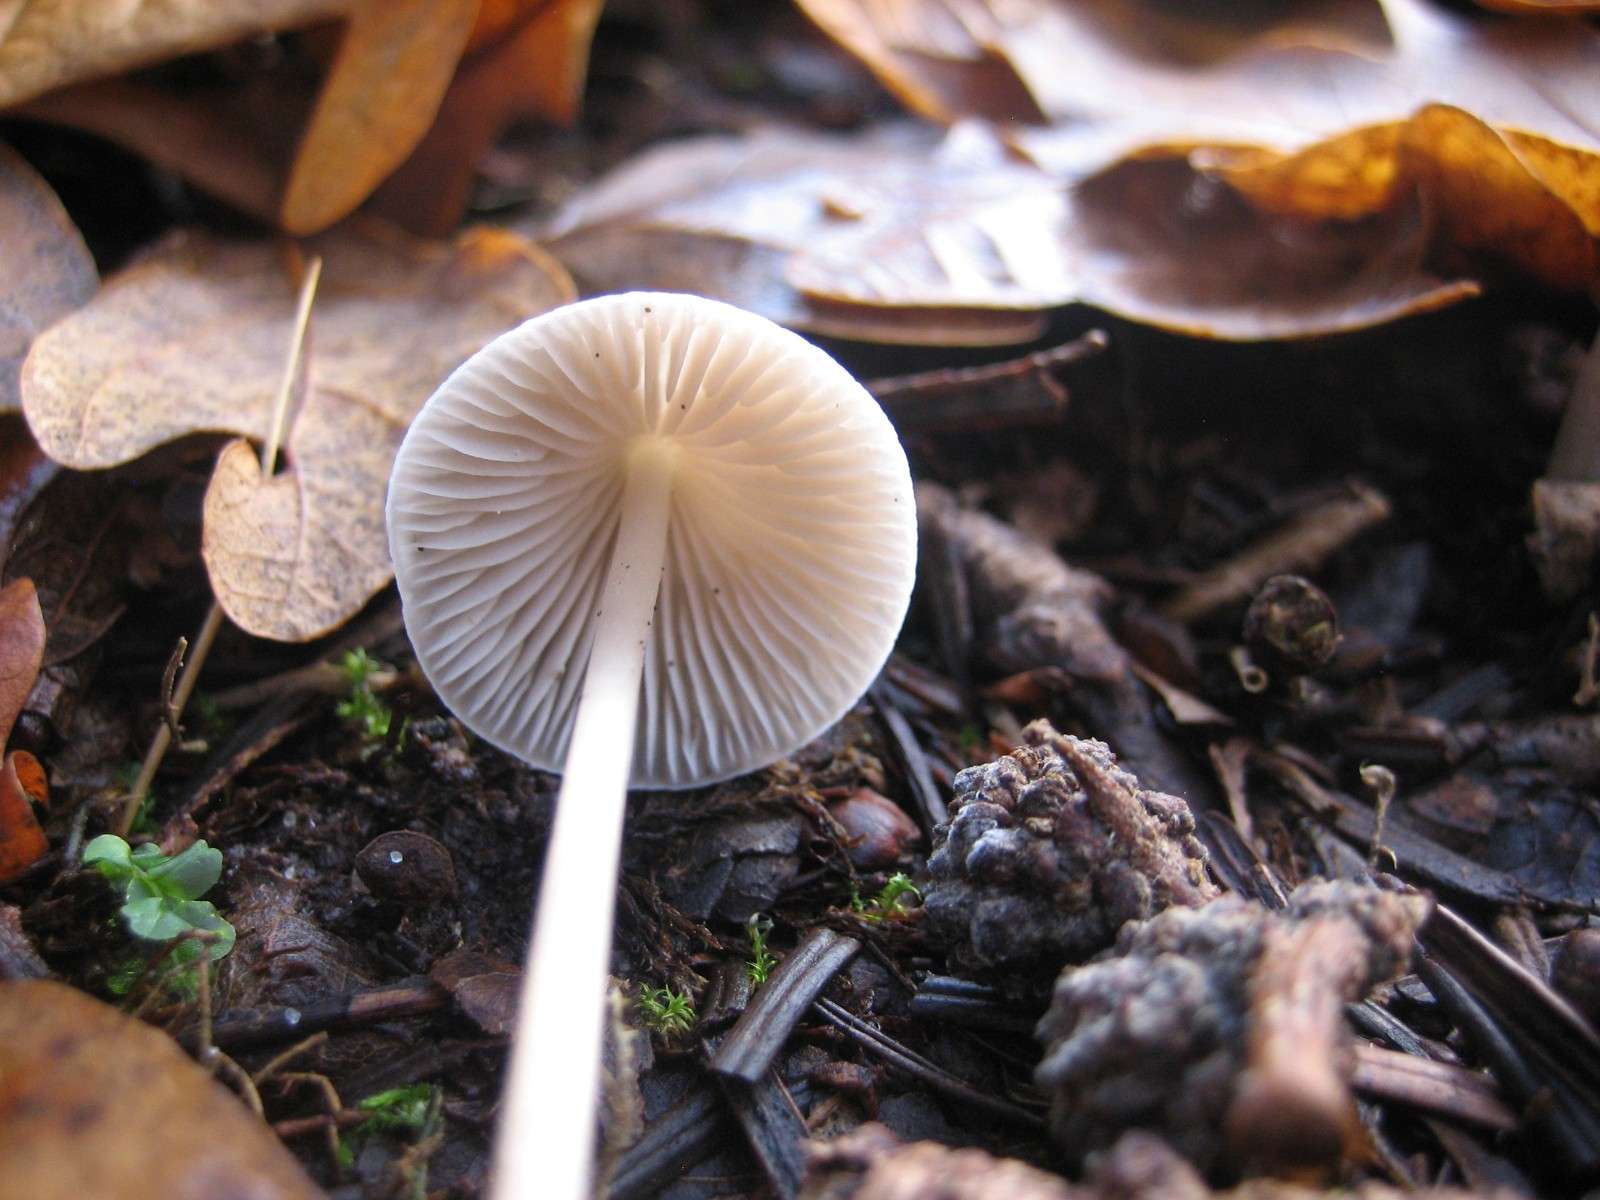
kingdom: Fungi
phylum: Basidiomycota
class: Agaricomycetes
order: Agaricales
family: Mycenaceae
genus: Mycena
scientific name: Mycena polygramma
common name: mangestribet huesvamp
